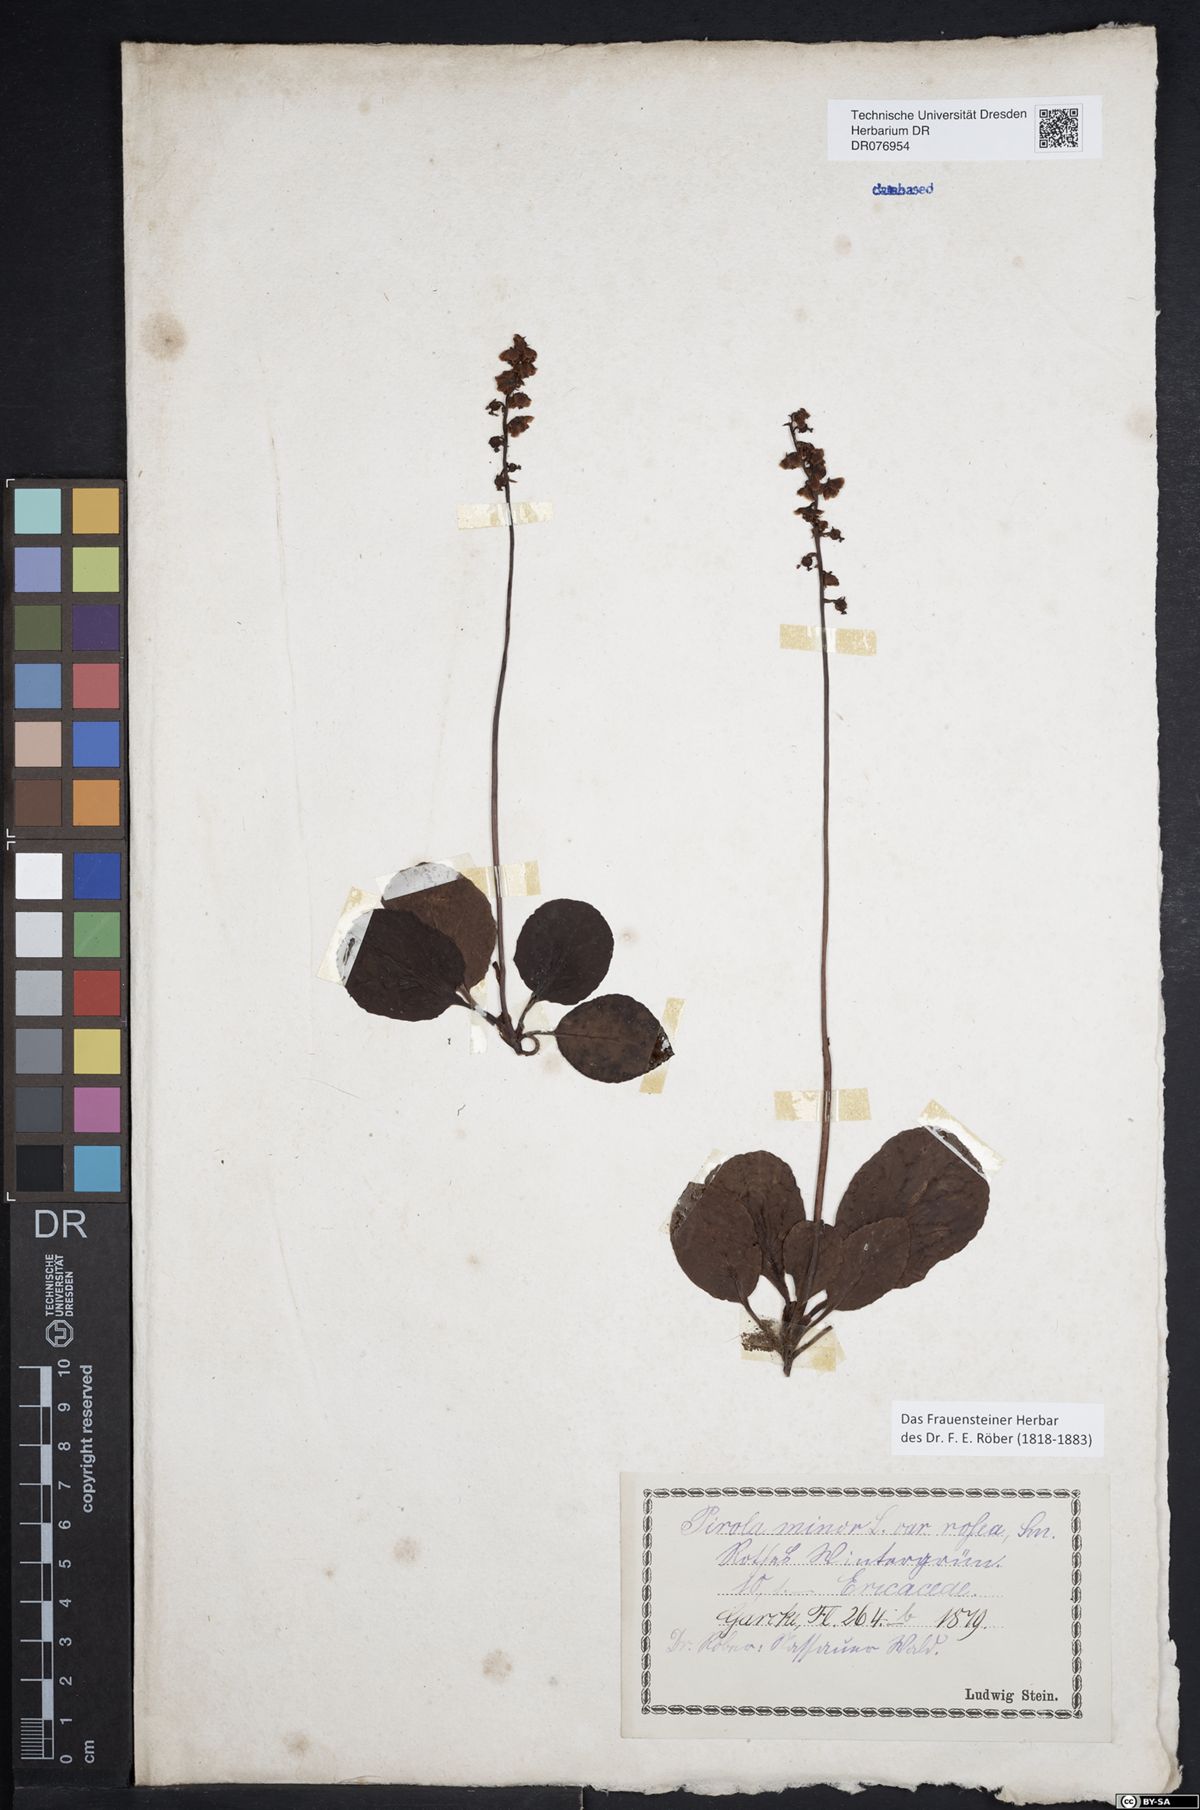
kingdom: Plantae
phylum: Tracheophyta
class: Magnoliopsida
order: Ericales
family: Ericaceae
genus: Pyrola
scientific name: Pyrola minor
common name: Common wintergreen
